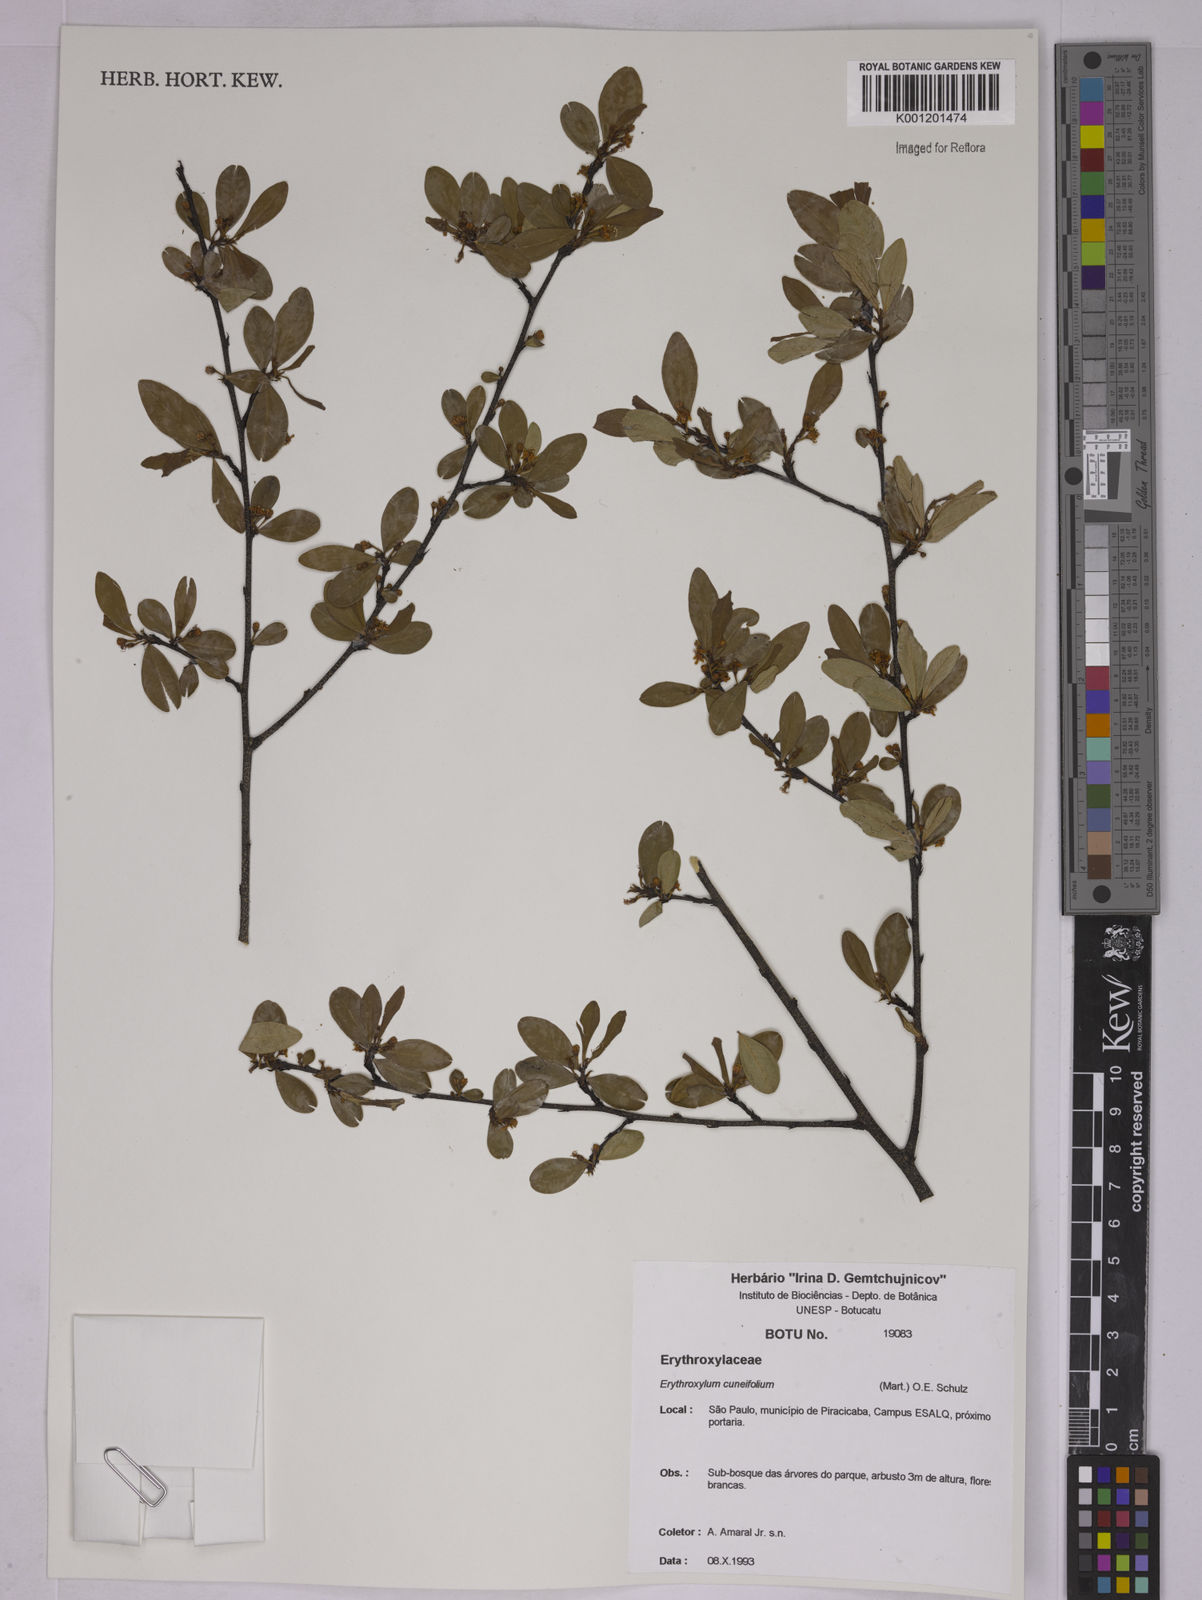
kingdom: Plantae
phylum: Tracheophyta
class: Magnoliopsida
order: Malpighiales
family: Erythroxylaceae
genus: Erythroxylum
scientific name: Erythroxylum cuneifolium
